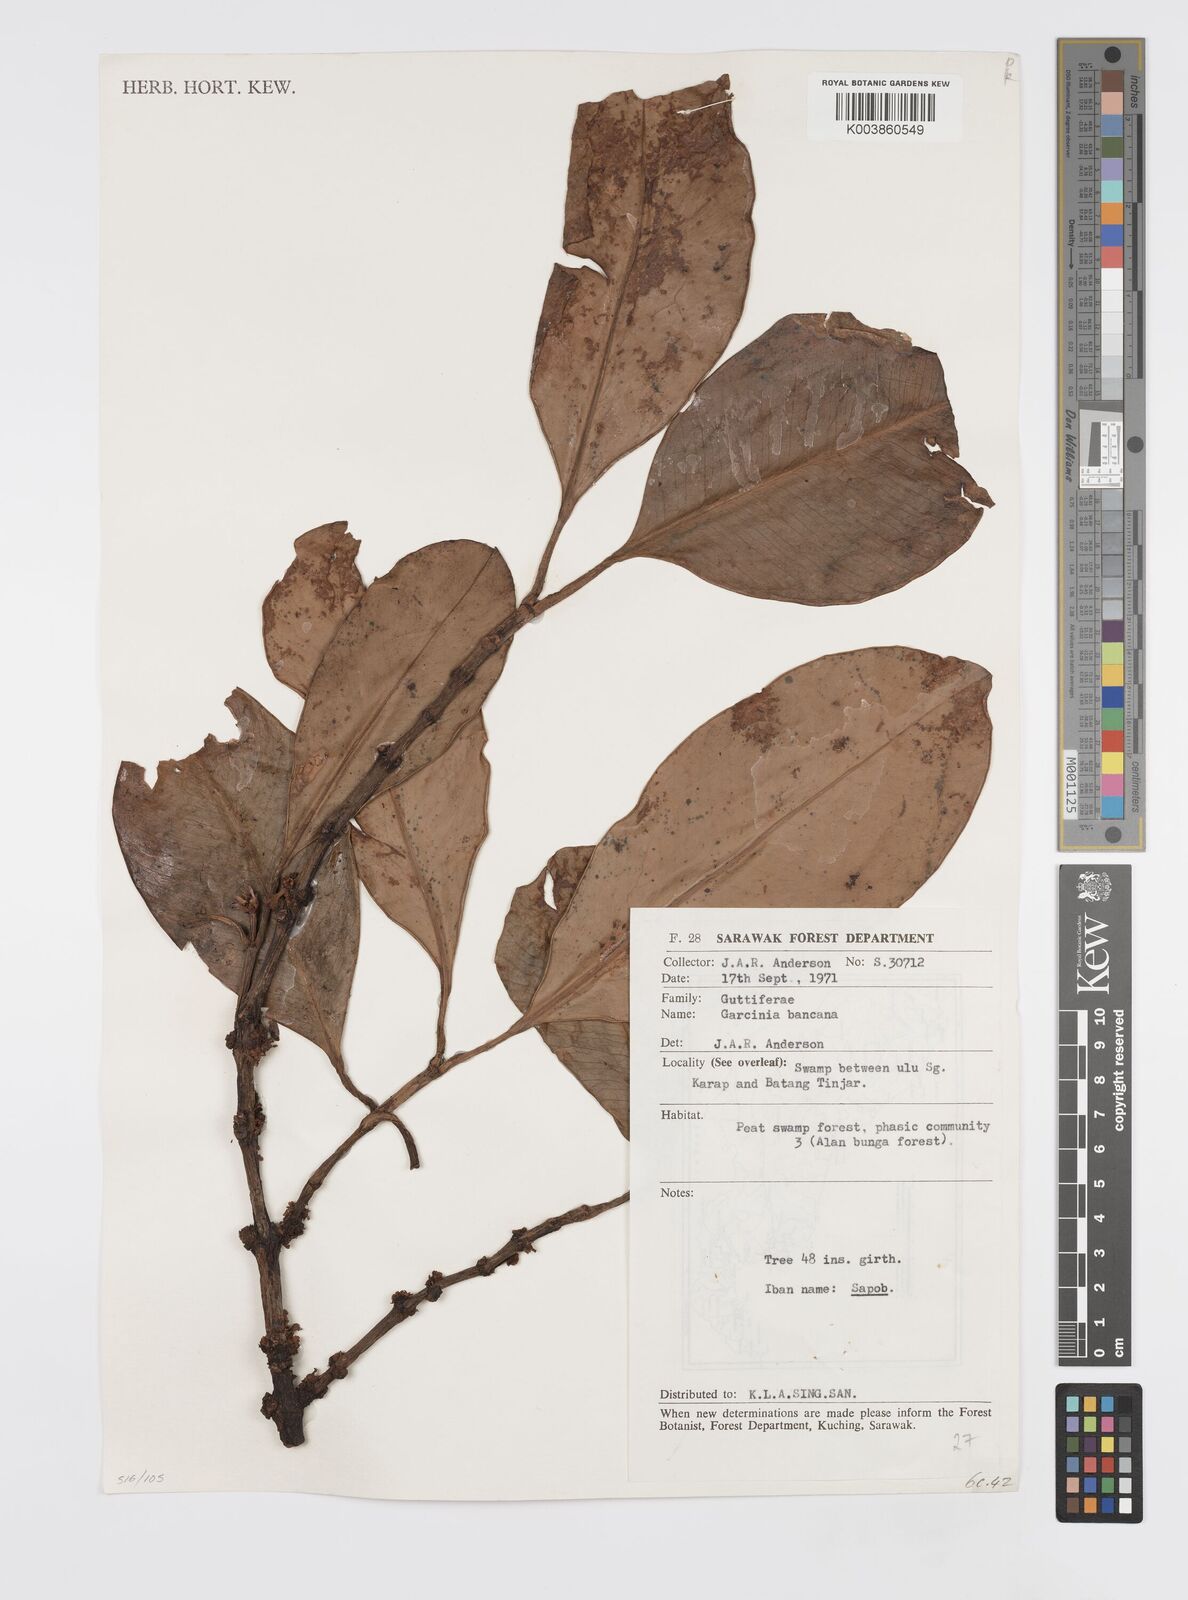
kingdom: Plantae
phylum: Tracheophyta
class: Magnoliopsida
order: Malpighiales
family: Clusiaceae
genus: Garcinia
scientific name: Garcinia bancana
